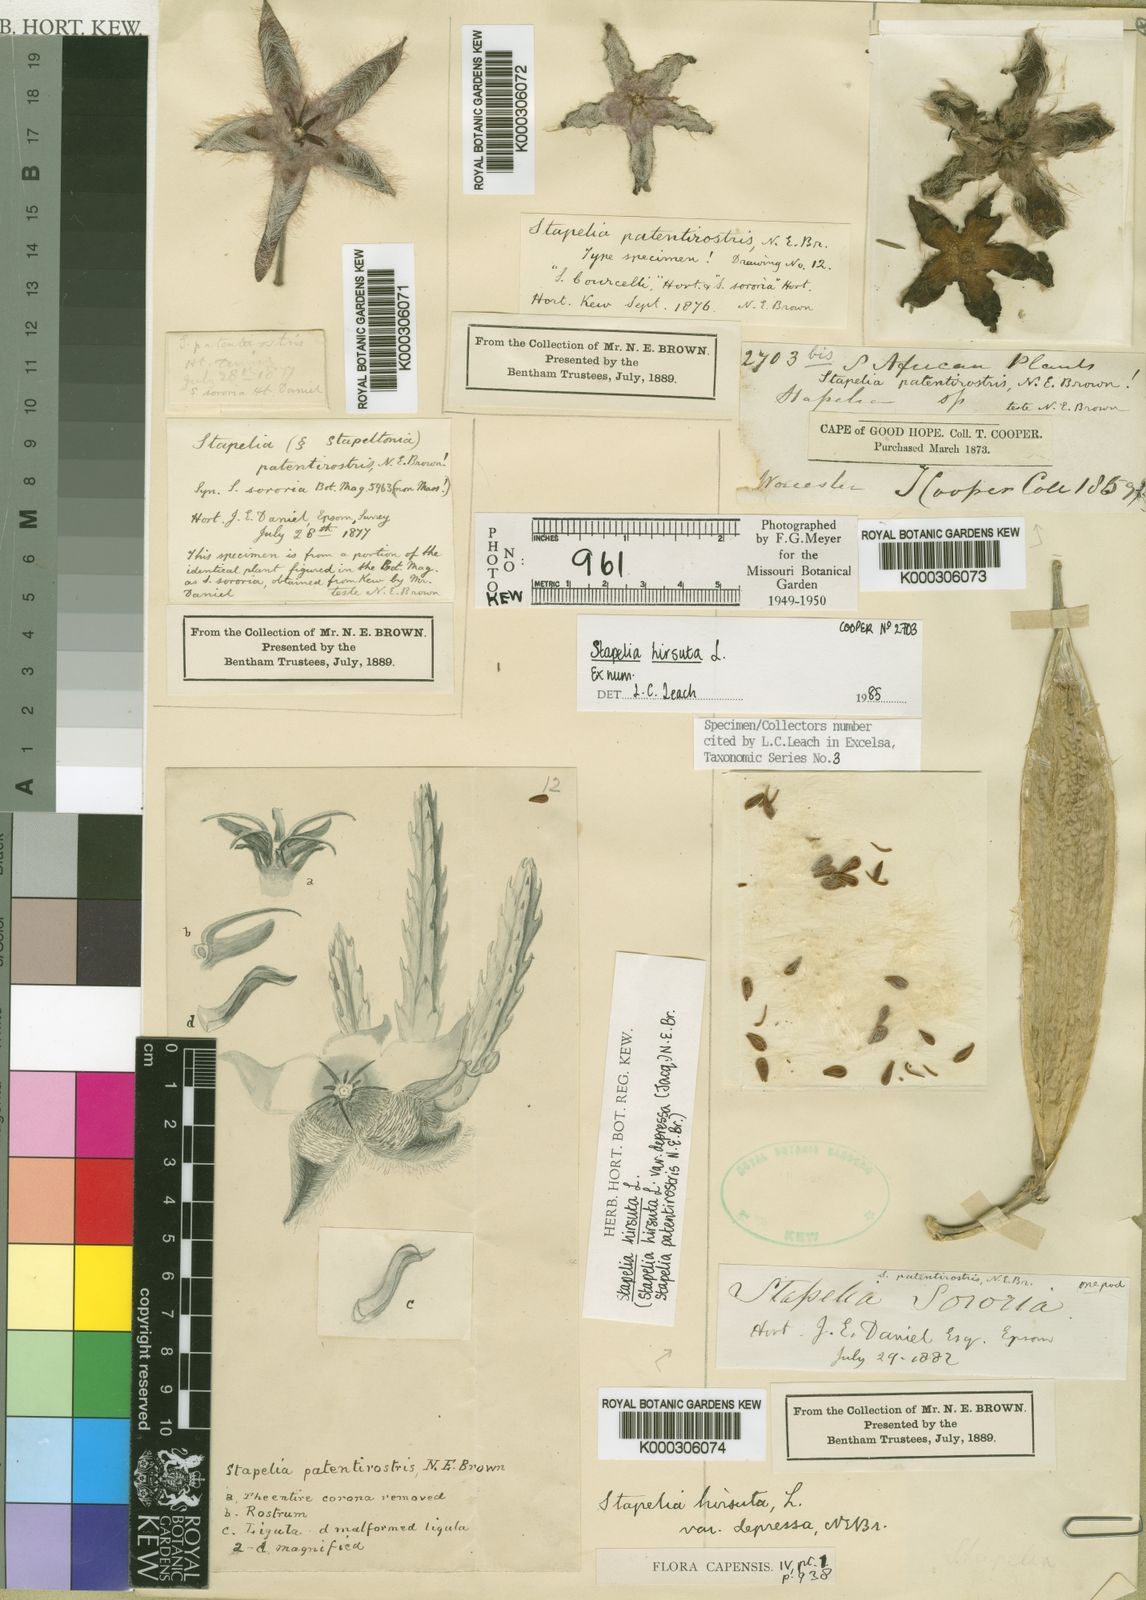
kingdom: Plantae
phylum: Tracheophyta
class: Magnoliopsida
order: Gentianales
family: Apocynaceae
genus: Ceropegia
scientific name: Ceropegia pulvinata
